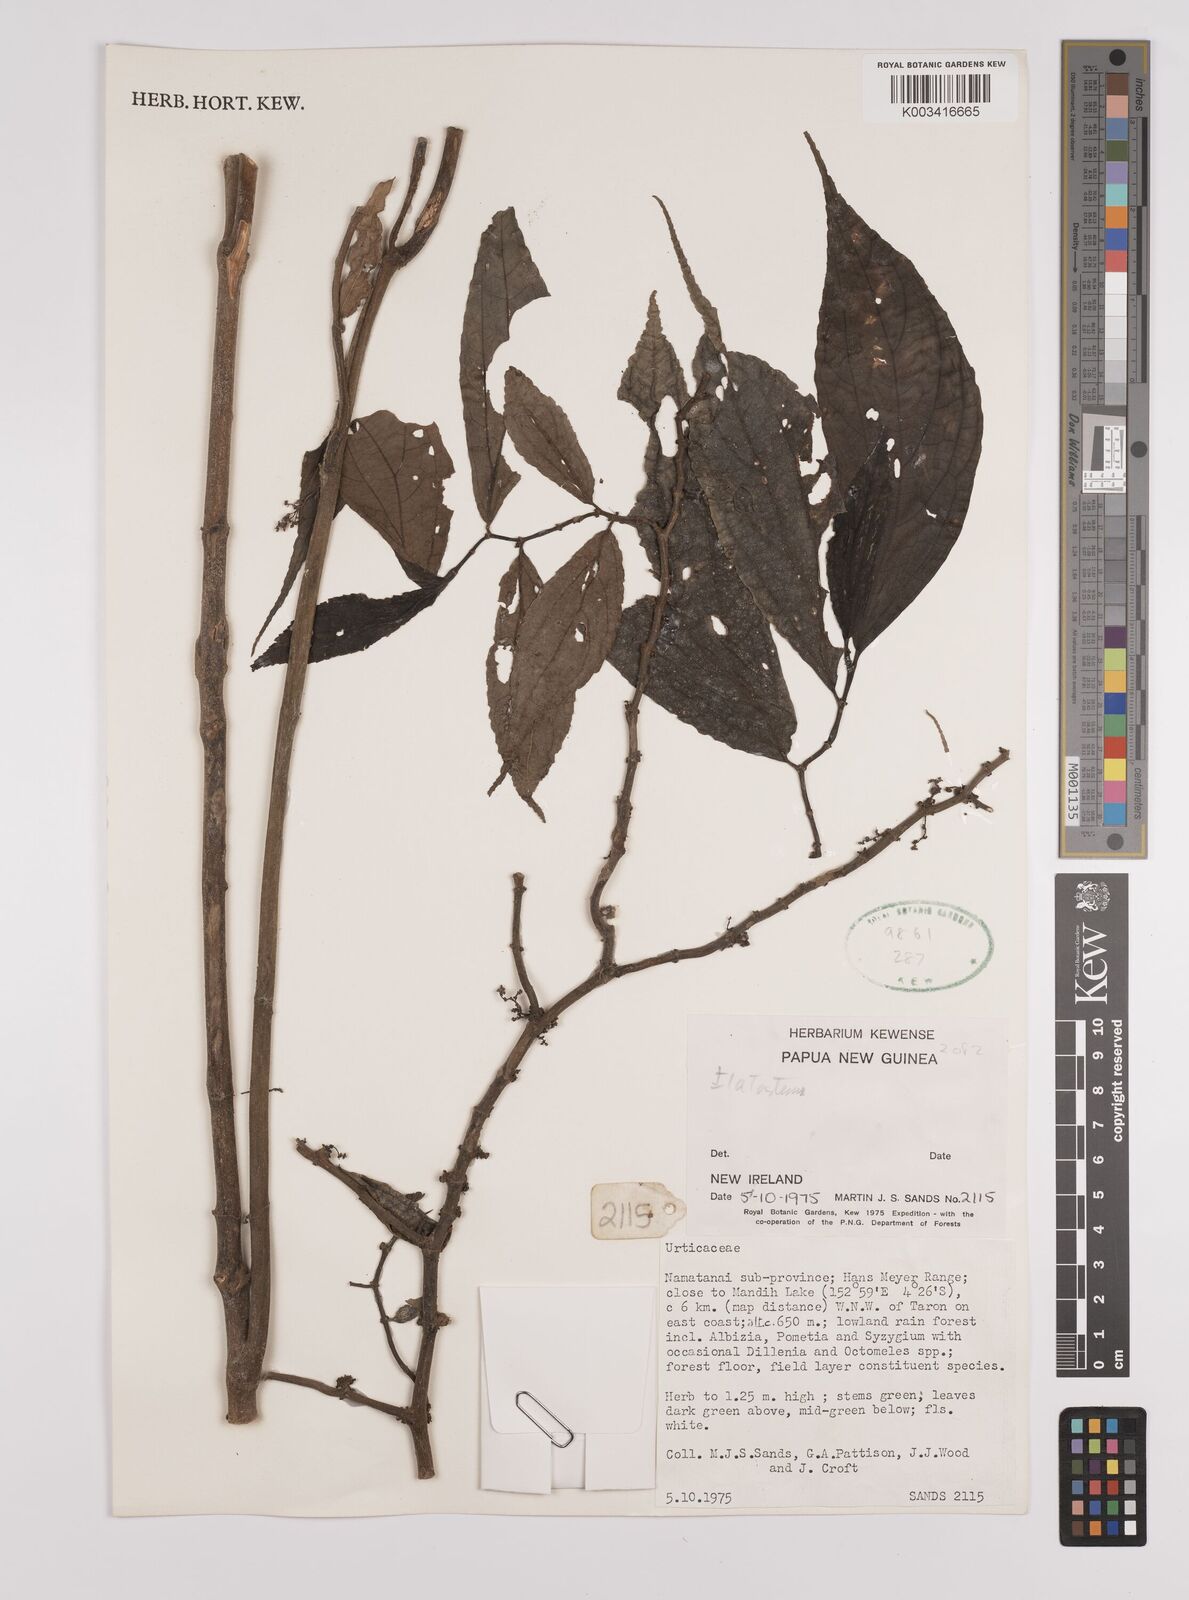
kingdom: Plantae
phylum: Tracheophyta
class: Magnoliopsida
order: Rosales
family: Urticaceae
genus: Elatostema
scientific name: Elatostema
